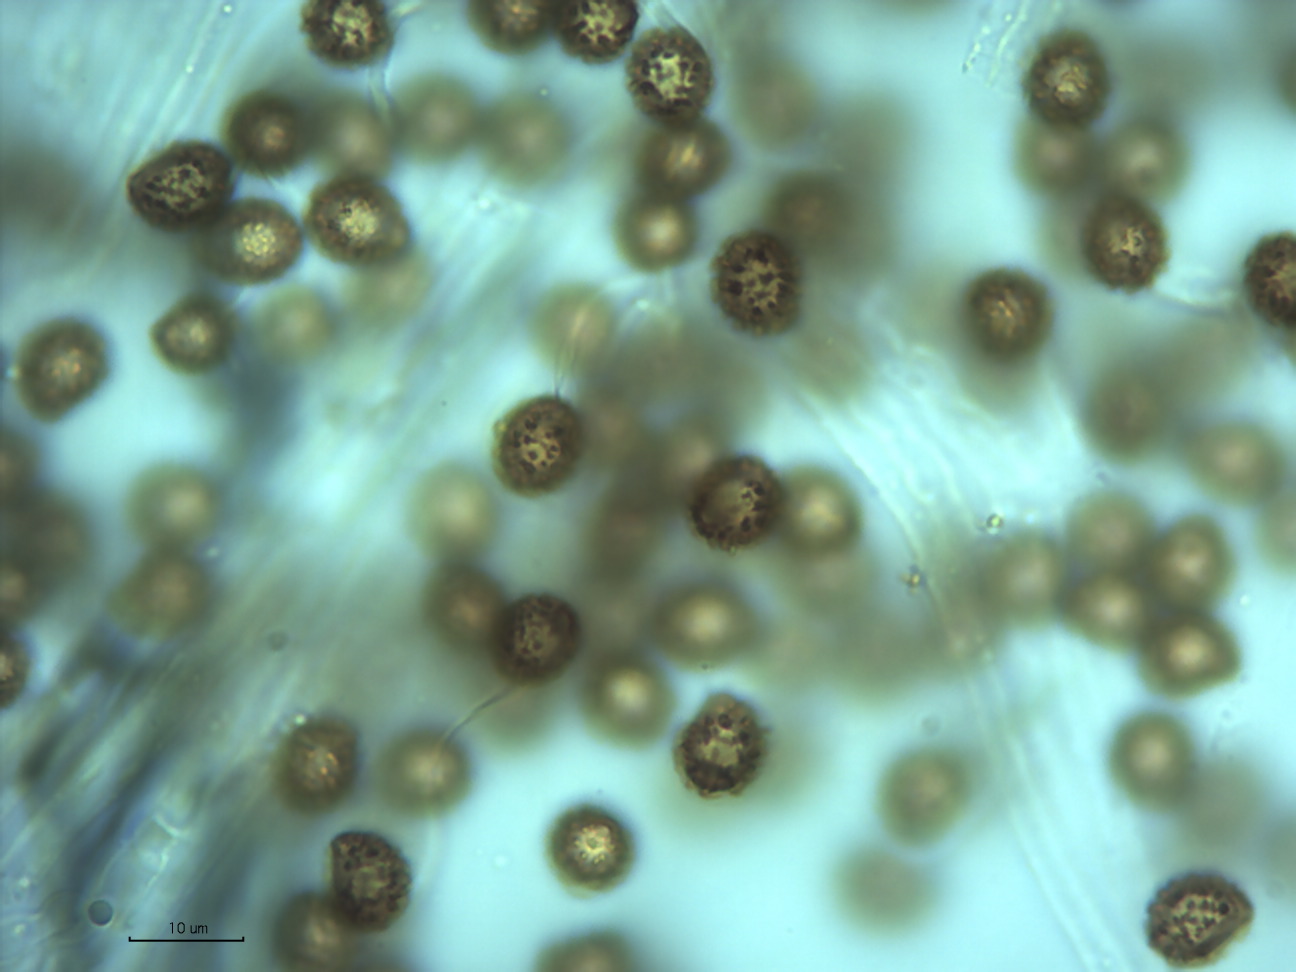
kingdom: Fungi
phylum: Basidiomycota
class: Agaricomycetes
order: Agaricales
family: Cortinariaceae
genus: Phlegmacium
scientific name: Phlegmacium caesiocortinatum
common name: rundsporet slørhat
